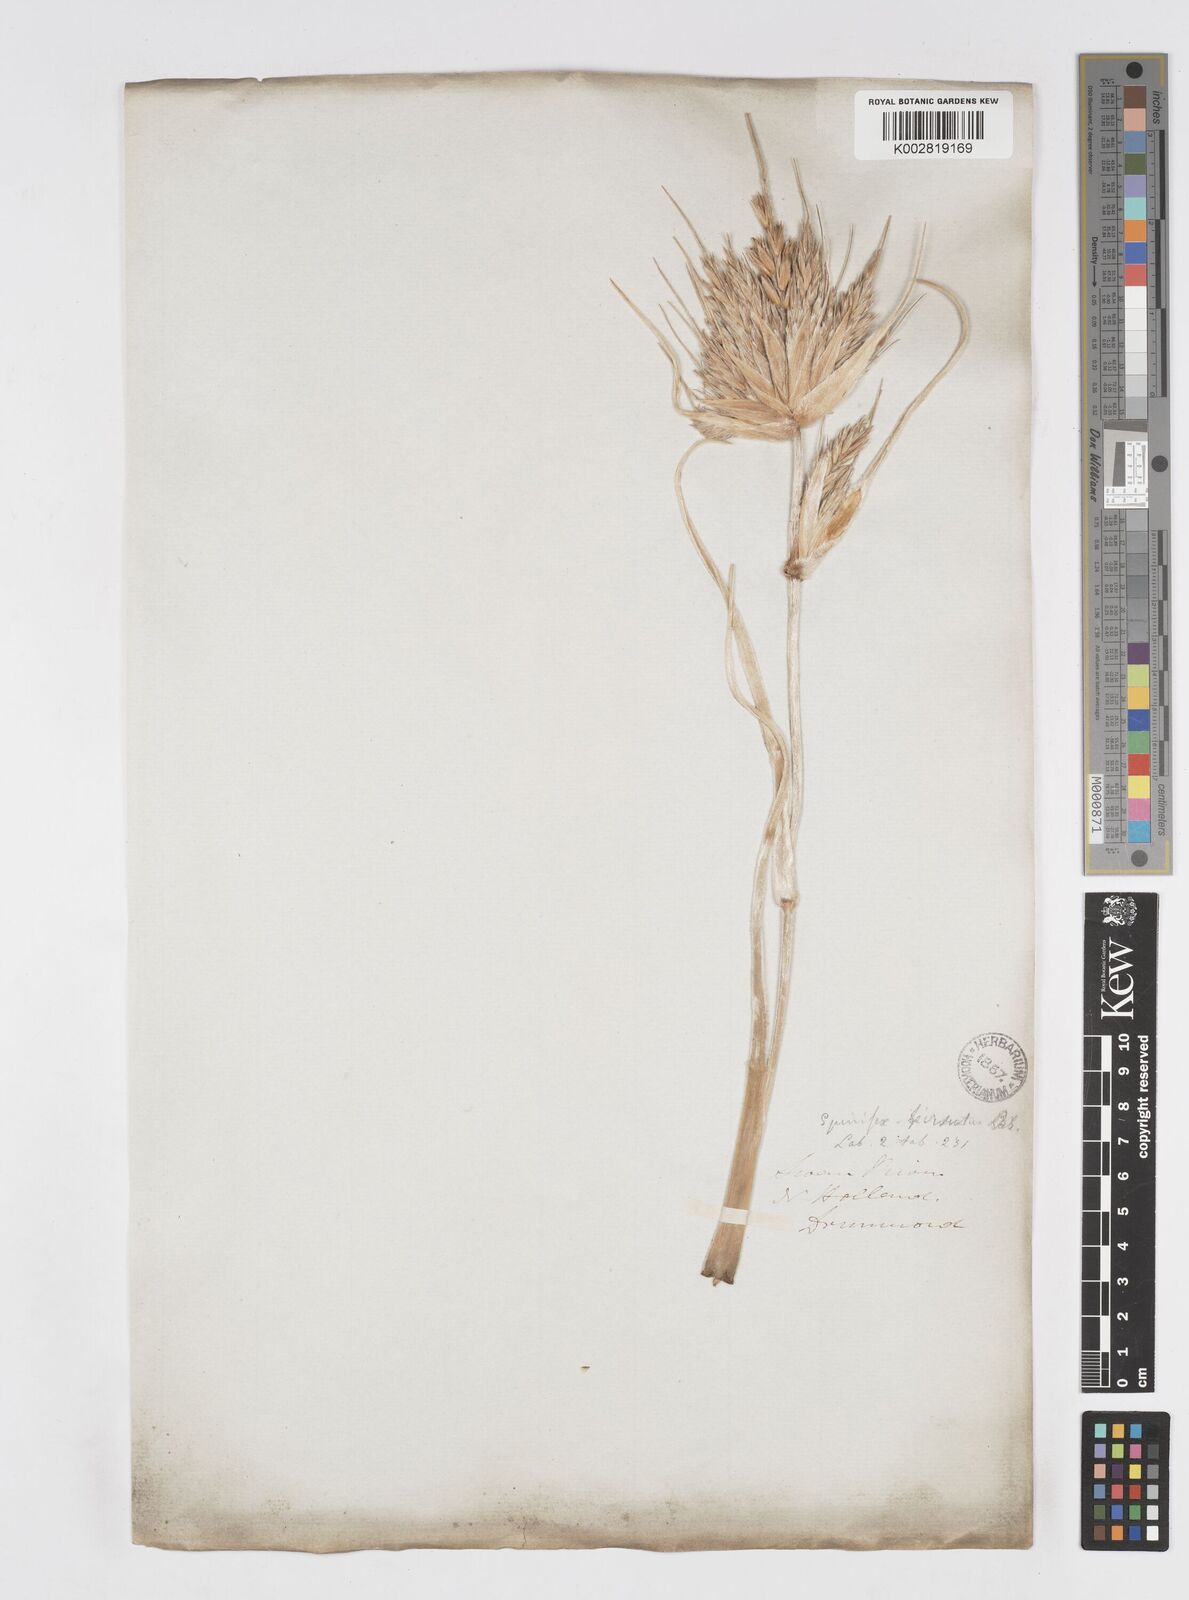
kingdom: Plantae
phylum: Tracheophyta
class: Liliopsida
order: Poales
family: Poaceae
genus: Spinifex
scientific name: Spinifex hirsutus
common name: Hairy spinifex
